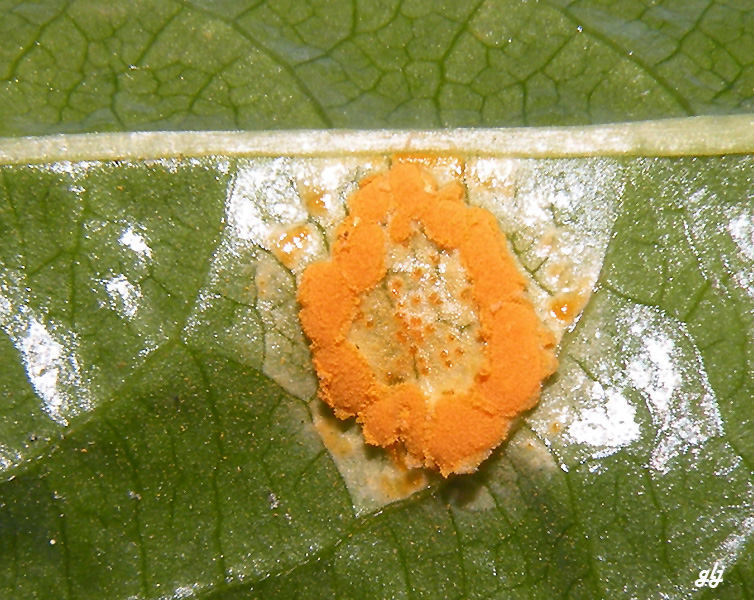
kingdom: Fungi
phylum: Basidiomycota
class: Pucciniomycetes
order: Pucciniales
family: Melampsoraceae
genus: Melampsora
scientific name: Melampsora populnea
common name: poppel-skorperust
